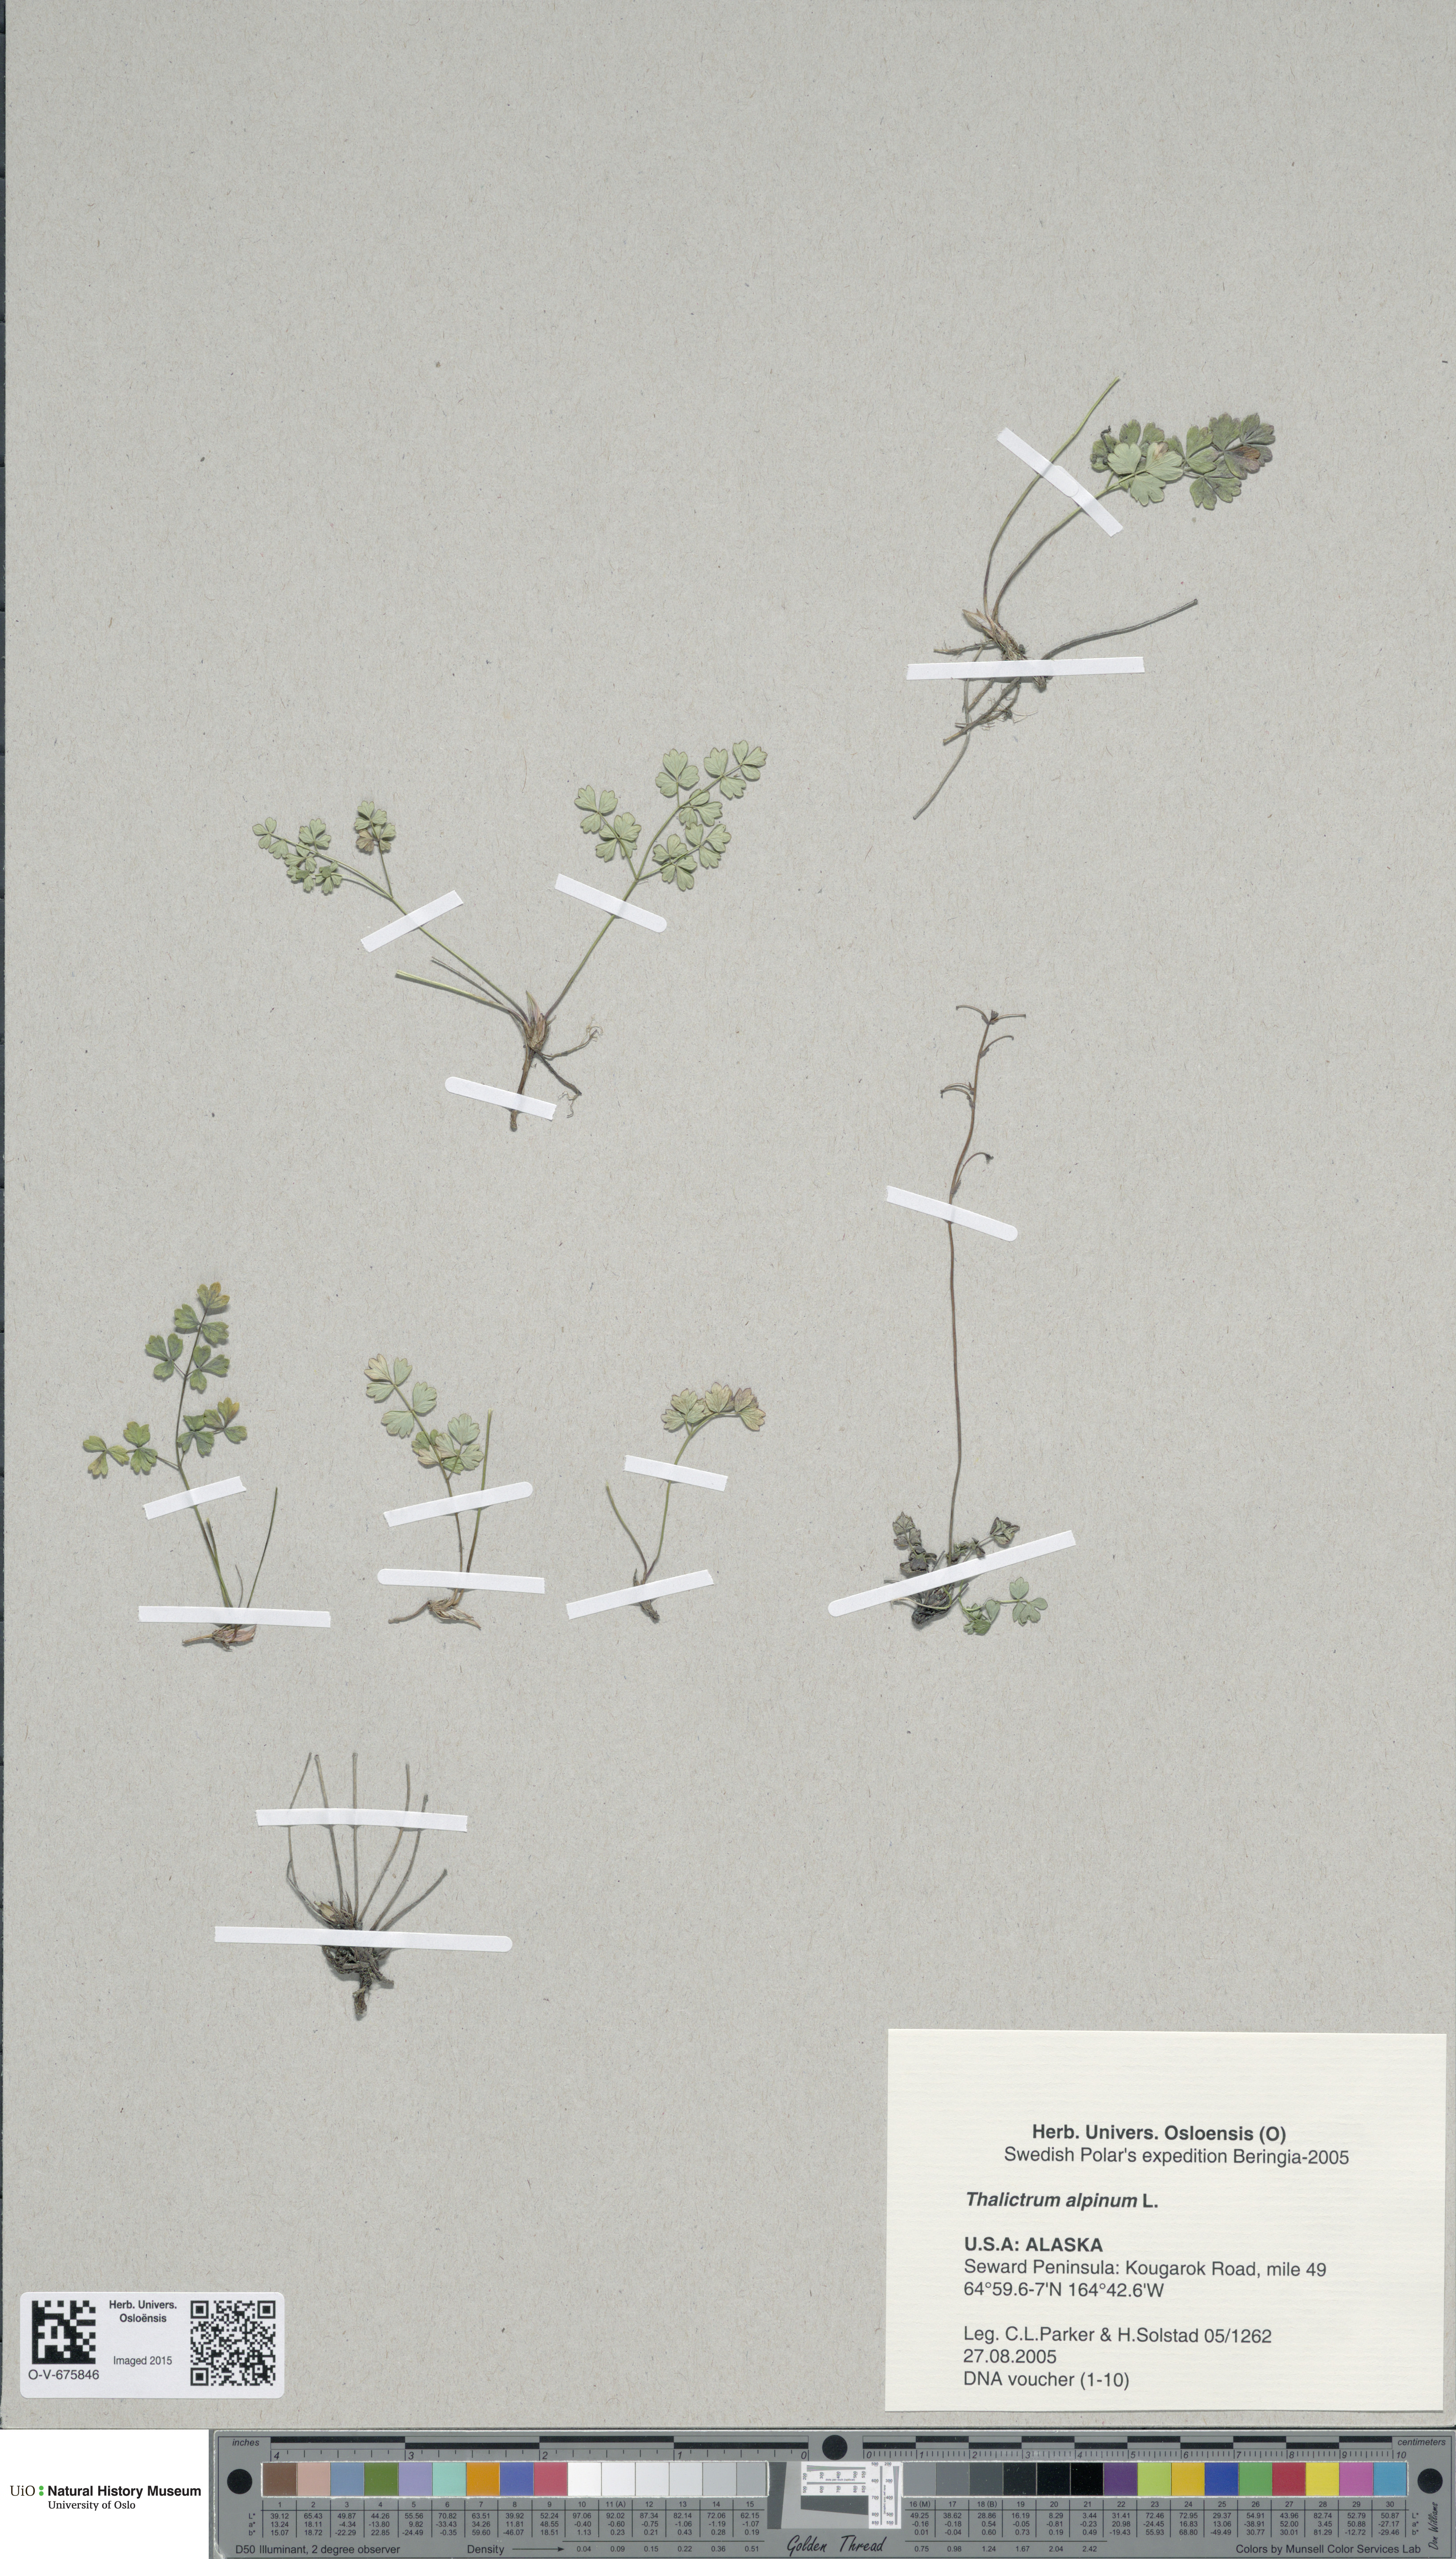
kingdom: Plantae
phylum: Tracheophyta
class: Magnoliopsida
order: Ranunculales
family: Ranunculaceae
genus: Thalictrum
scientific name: Thalictrum alpinum
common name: Alpine meadow-rue
